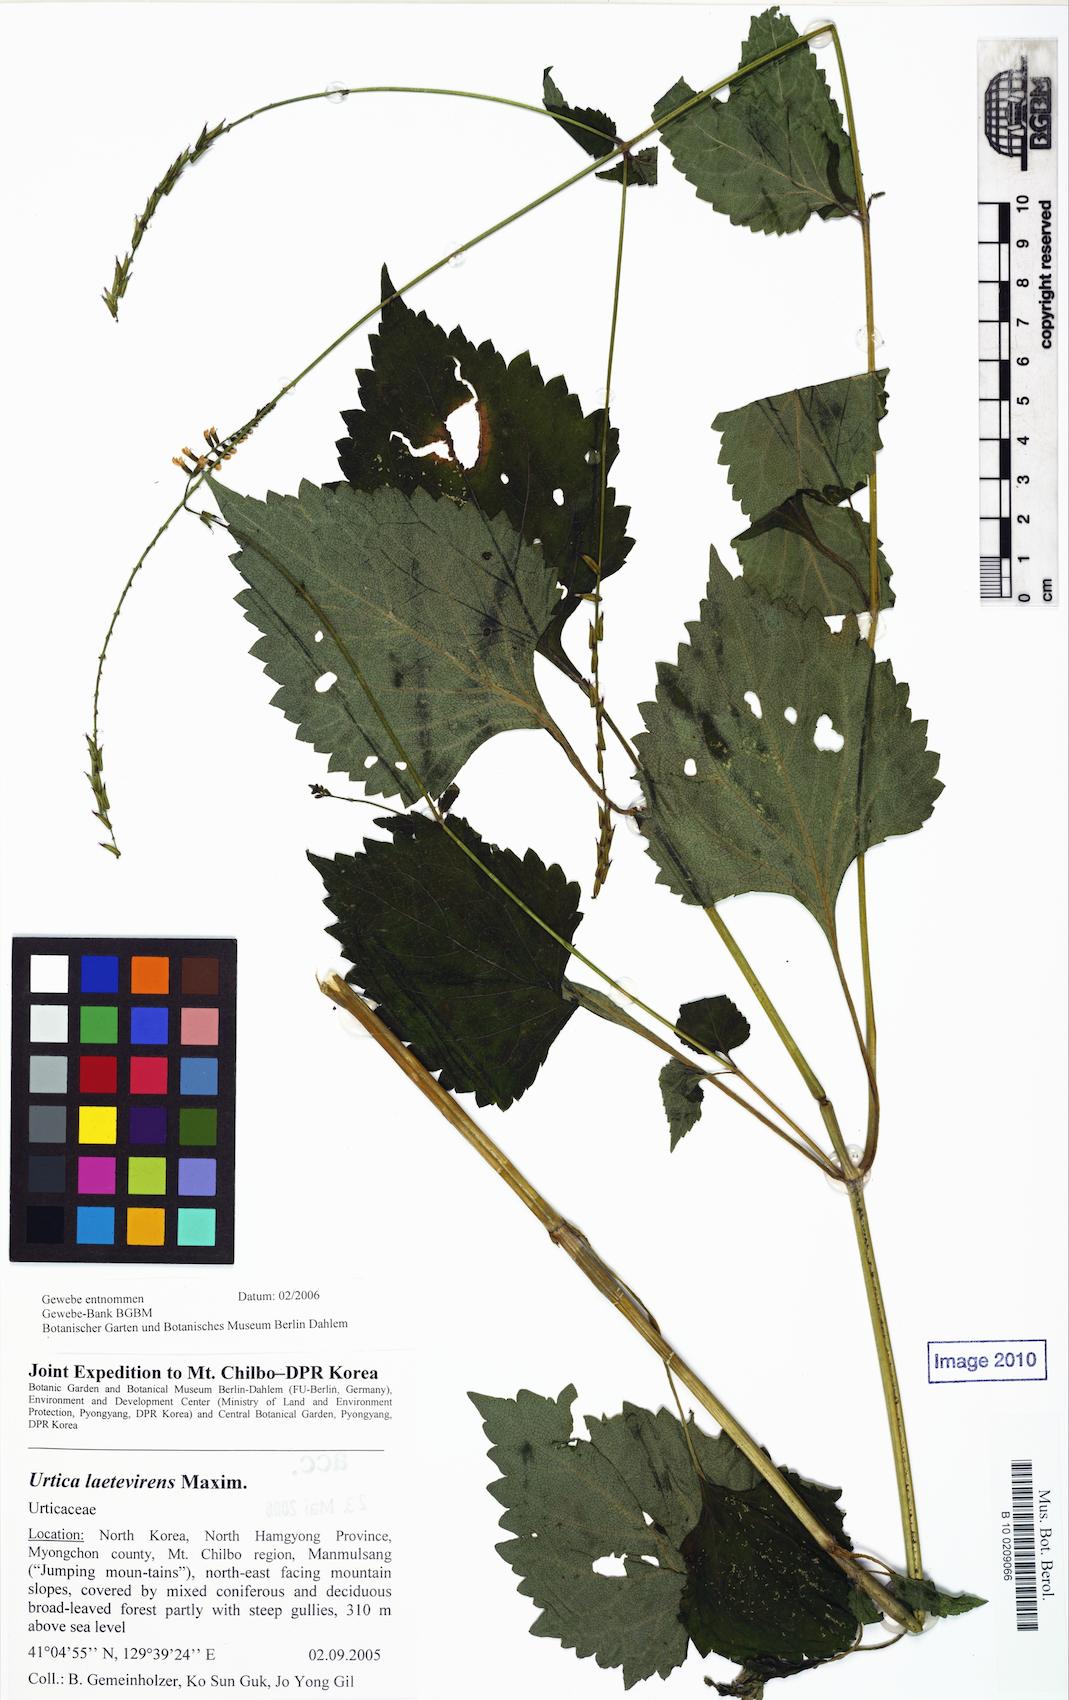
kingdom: Plantae
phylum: Tracheophyta
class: Magnoliopsida
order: Rosales
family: Urticaceae
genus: Urtica
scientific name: Urtica thunbergiana
